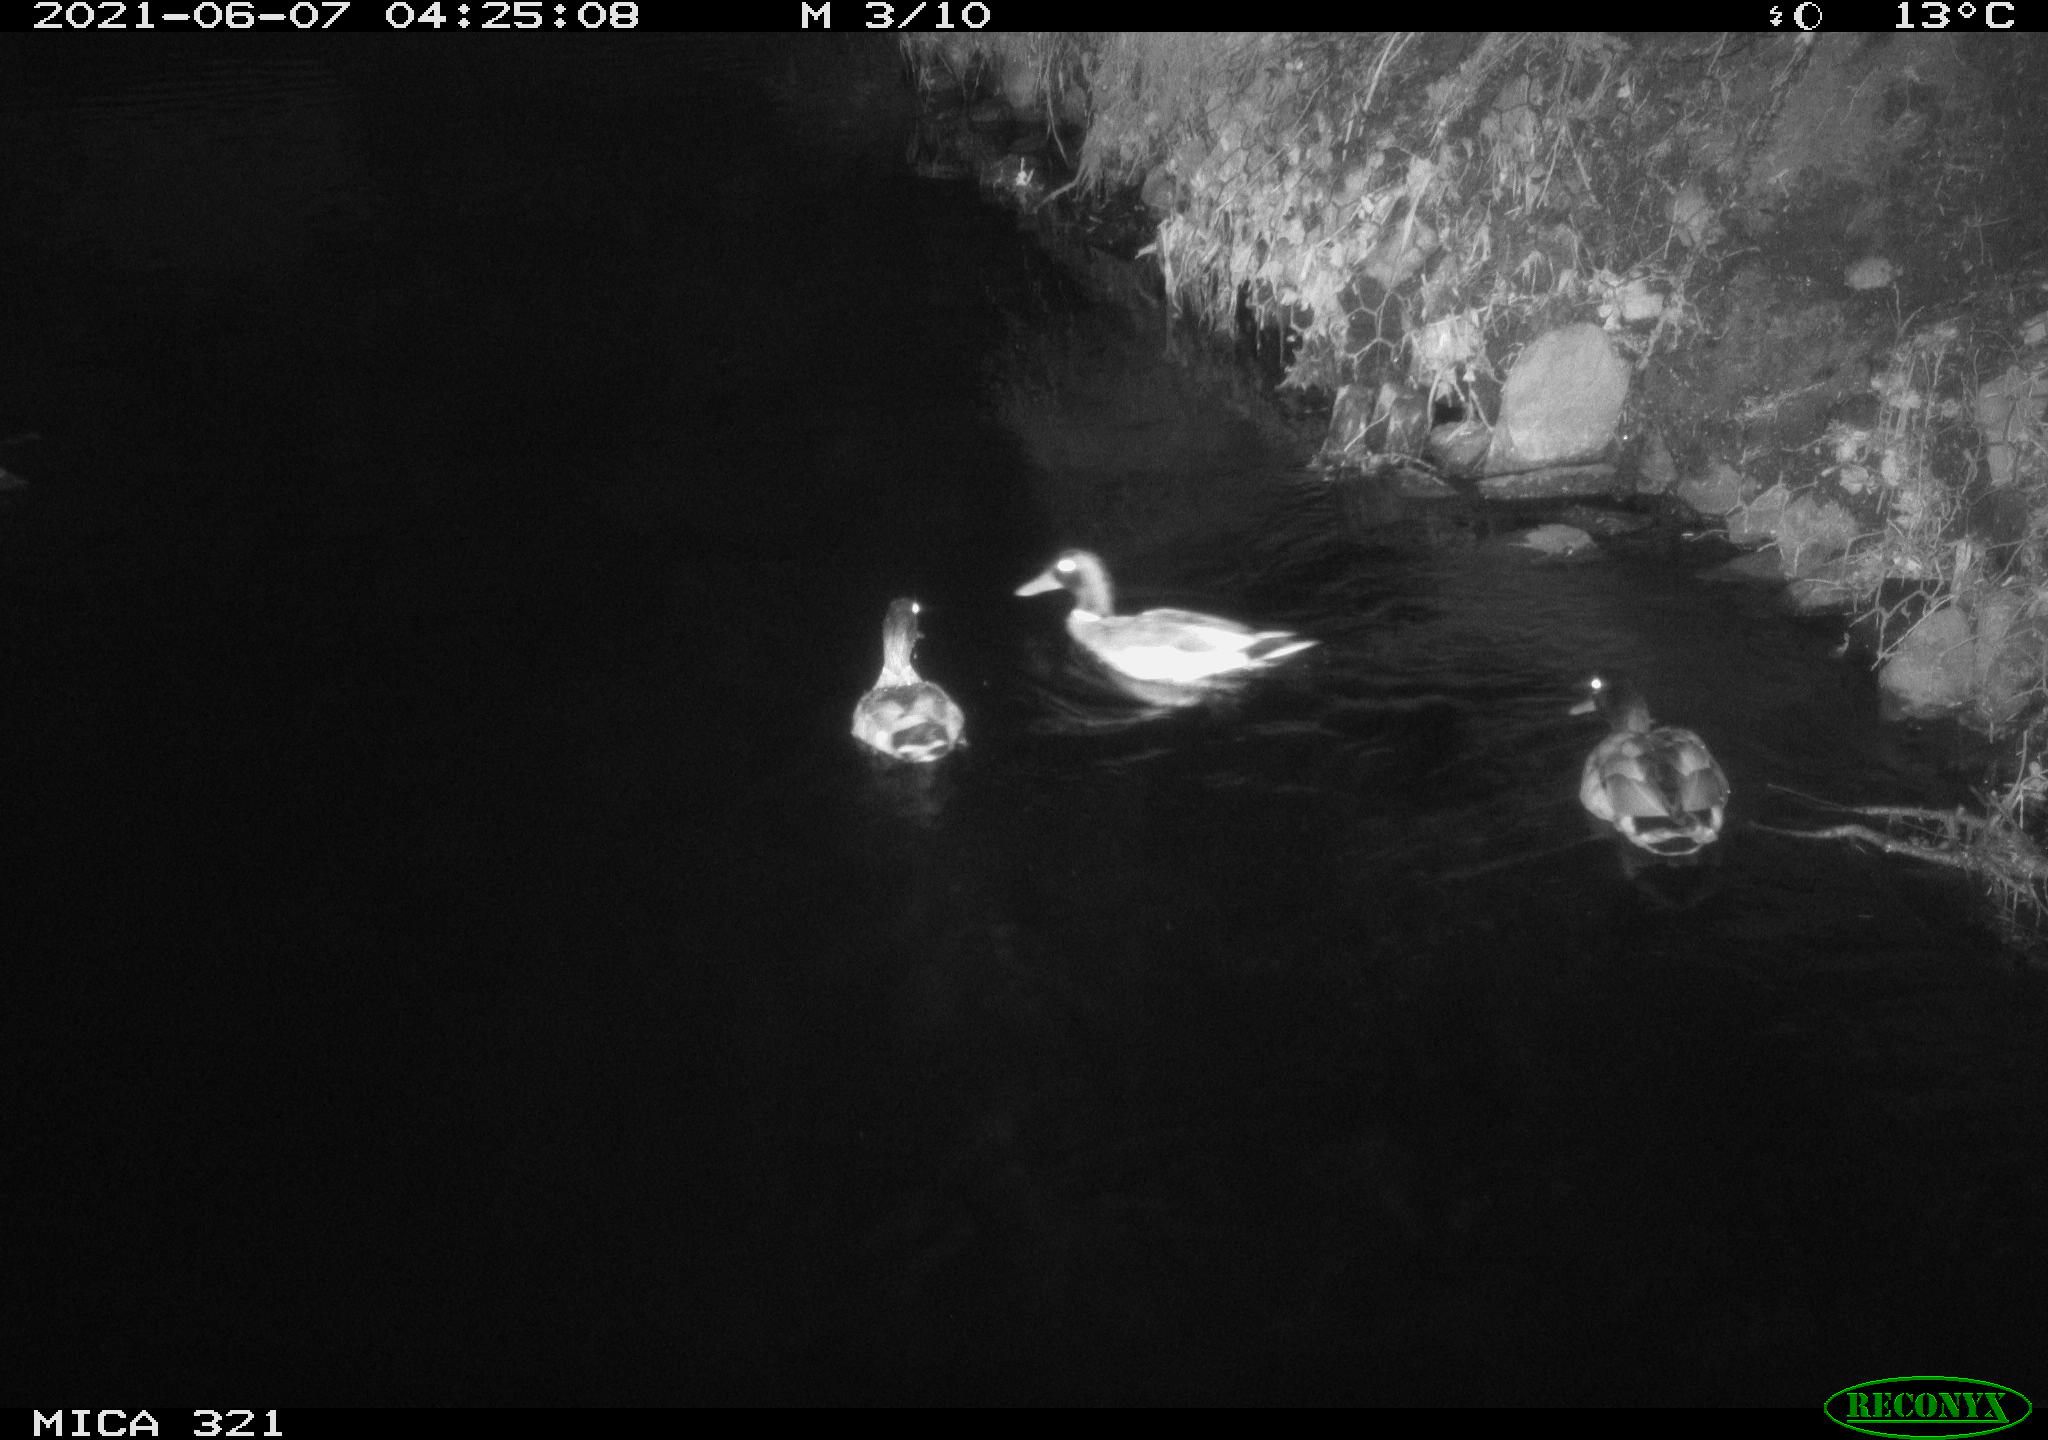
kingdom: Animalia
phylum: Chordata
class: Aves
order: Anseriformes
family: Anatidae
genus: Anas
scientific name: Anas platyrhynchos
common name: Mallard
